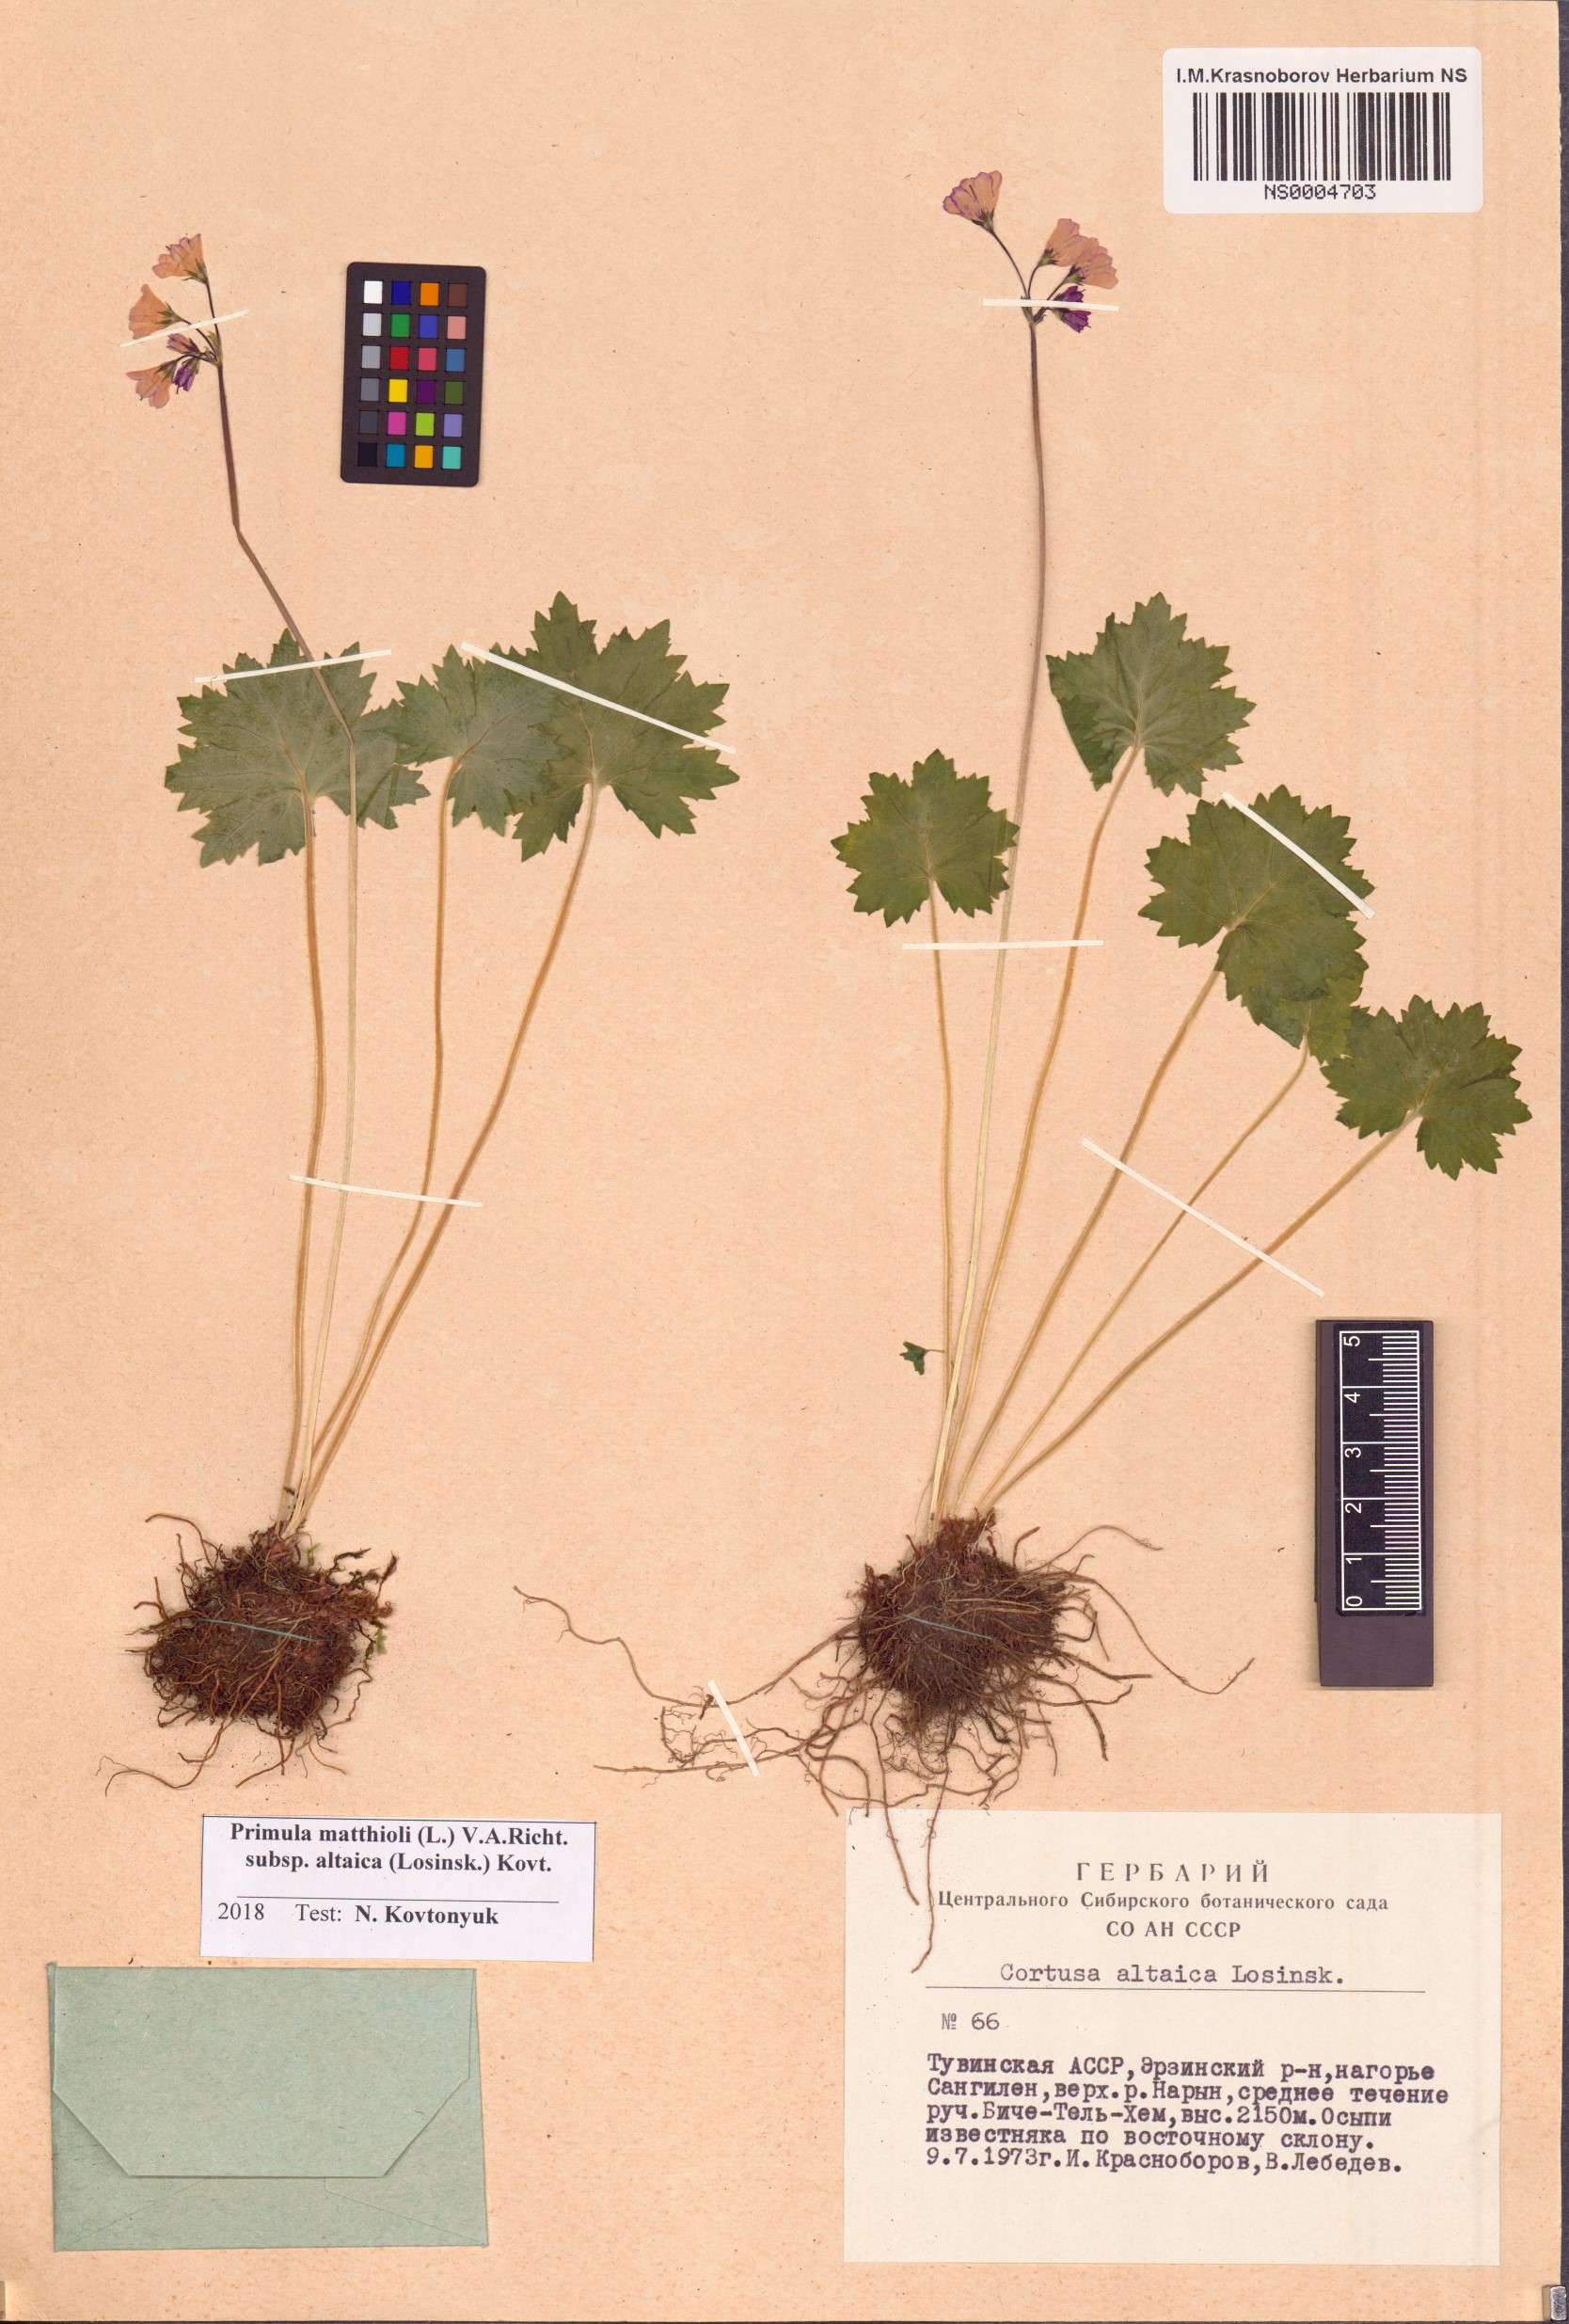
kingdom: Plantae
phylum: Tracheophyta
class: Magnoliopsida
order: Ericales
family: Primulaceae
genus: Primula
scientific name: Primula matthioli
